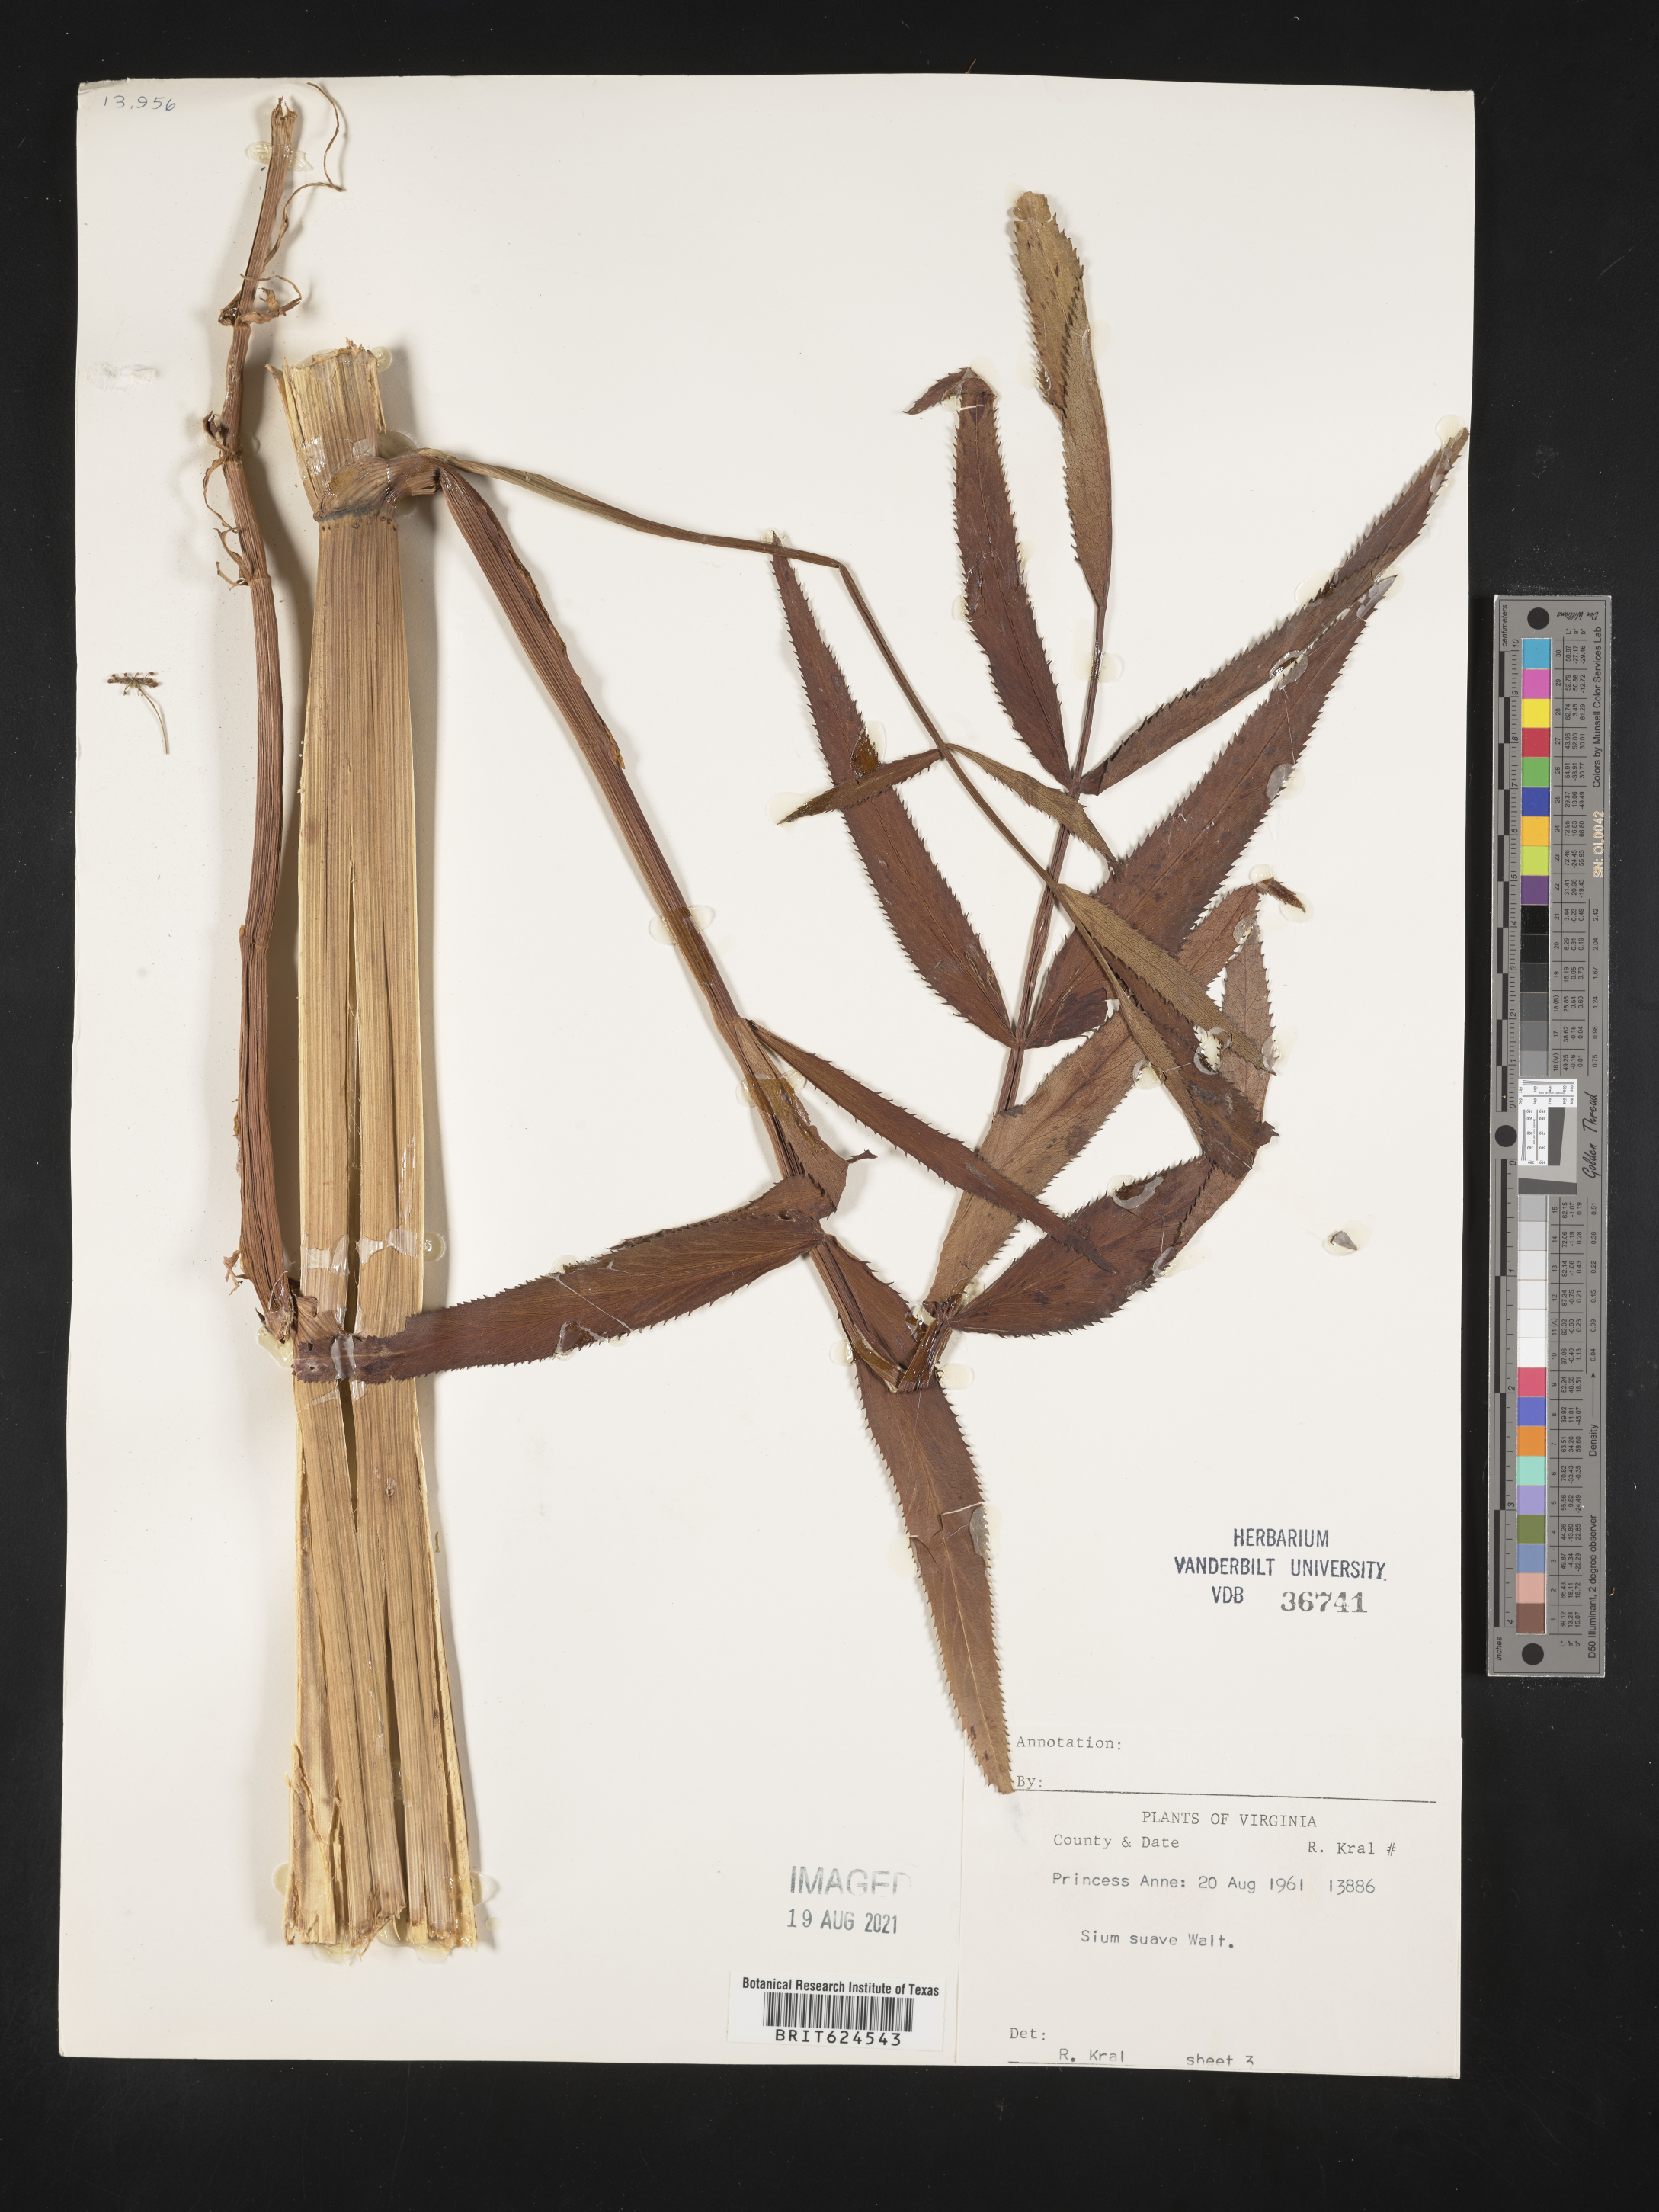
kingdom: Plantae
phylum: Tracheophyta
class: Magnoliopsida
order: Apiales
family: Apiaceae
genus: Sium
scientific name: Sium suave
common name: Hemlock water-parsnip
